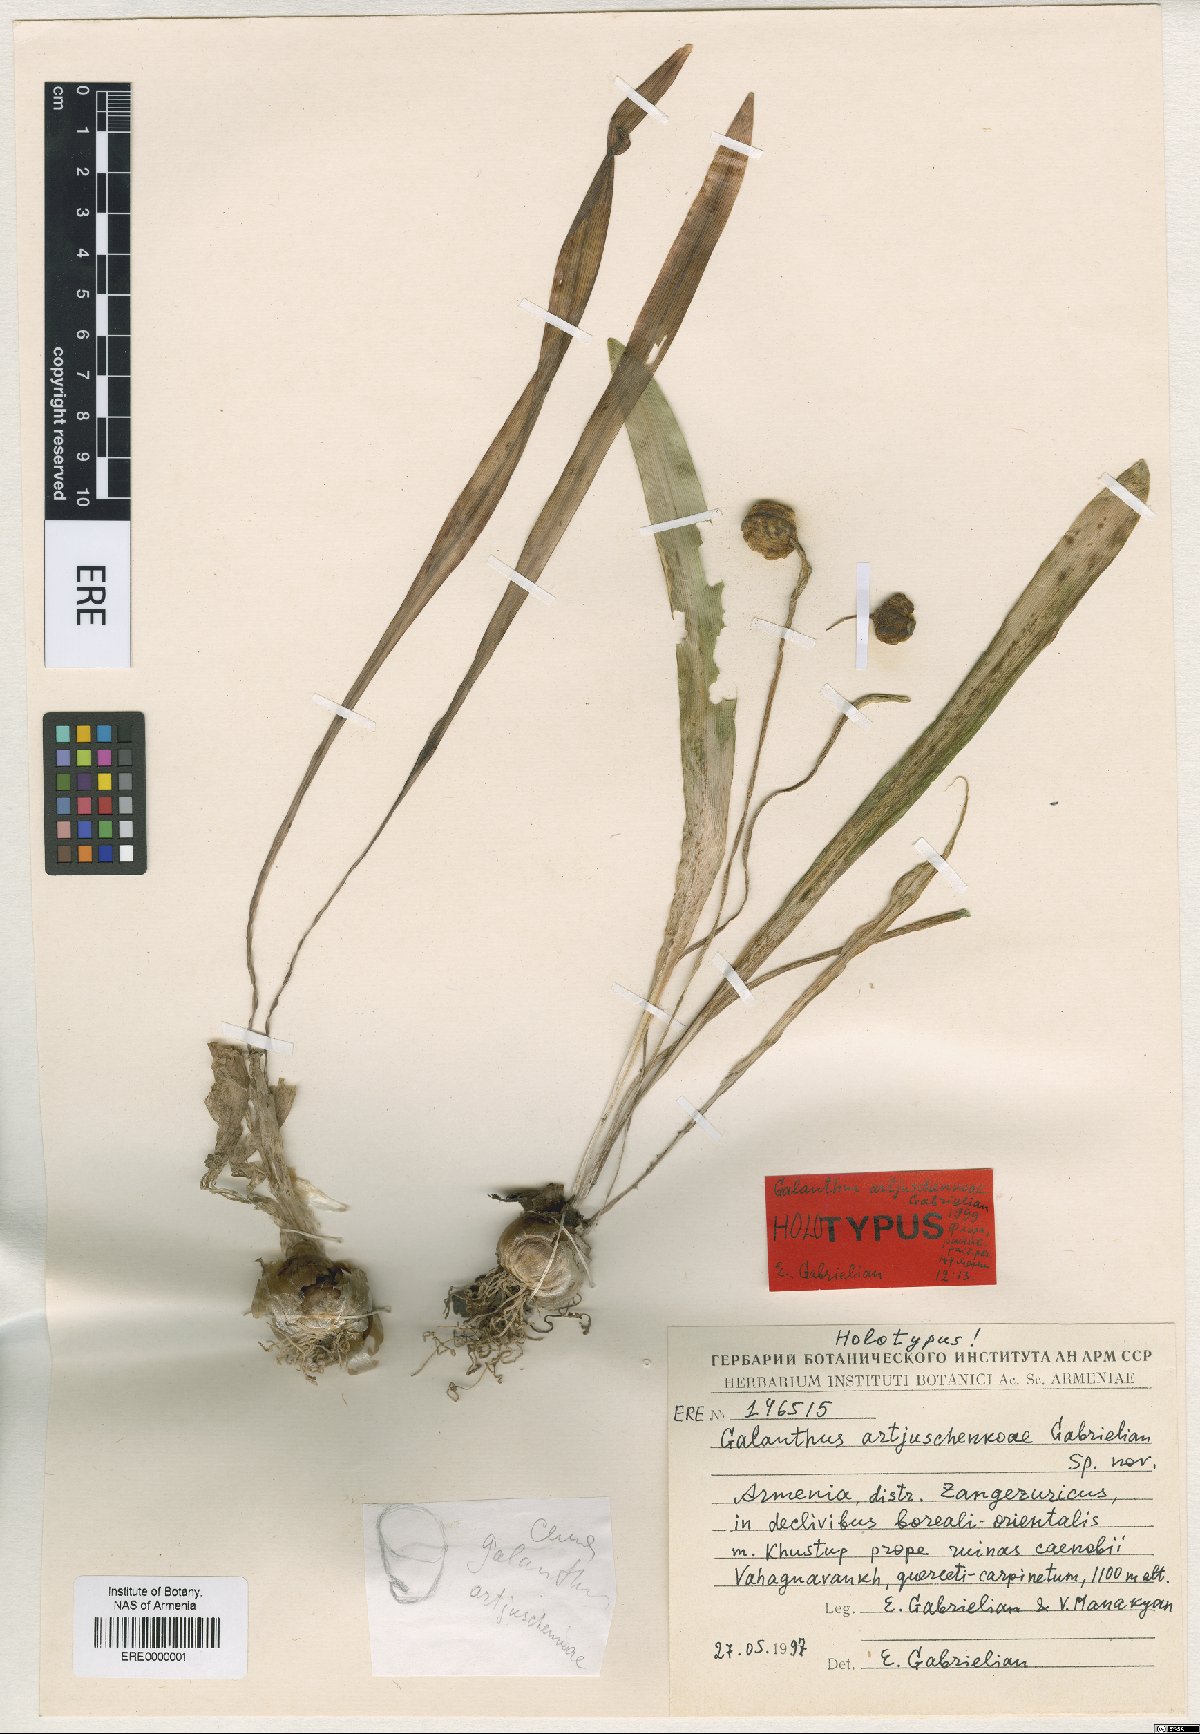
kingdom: Plantae
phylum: Tracheophyta
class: Liliopsida
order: Asparagales
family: Amaryllidaceae
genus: Galanthus
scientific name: Galanthus transcaucasicus
